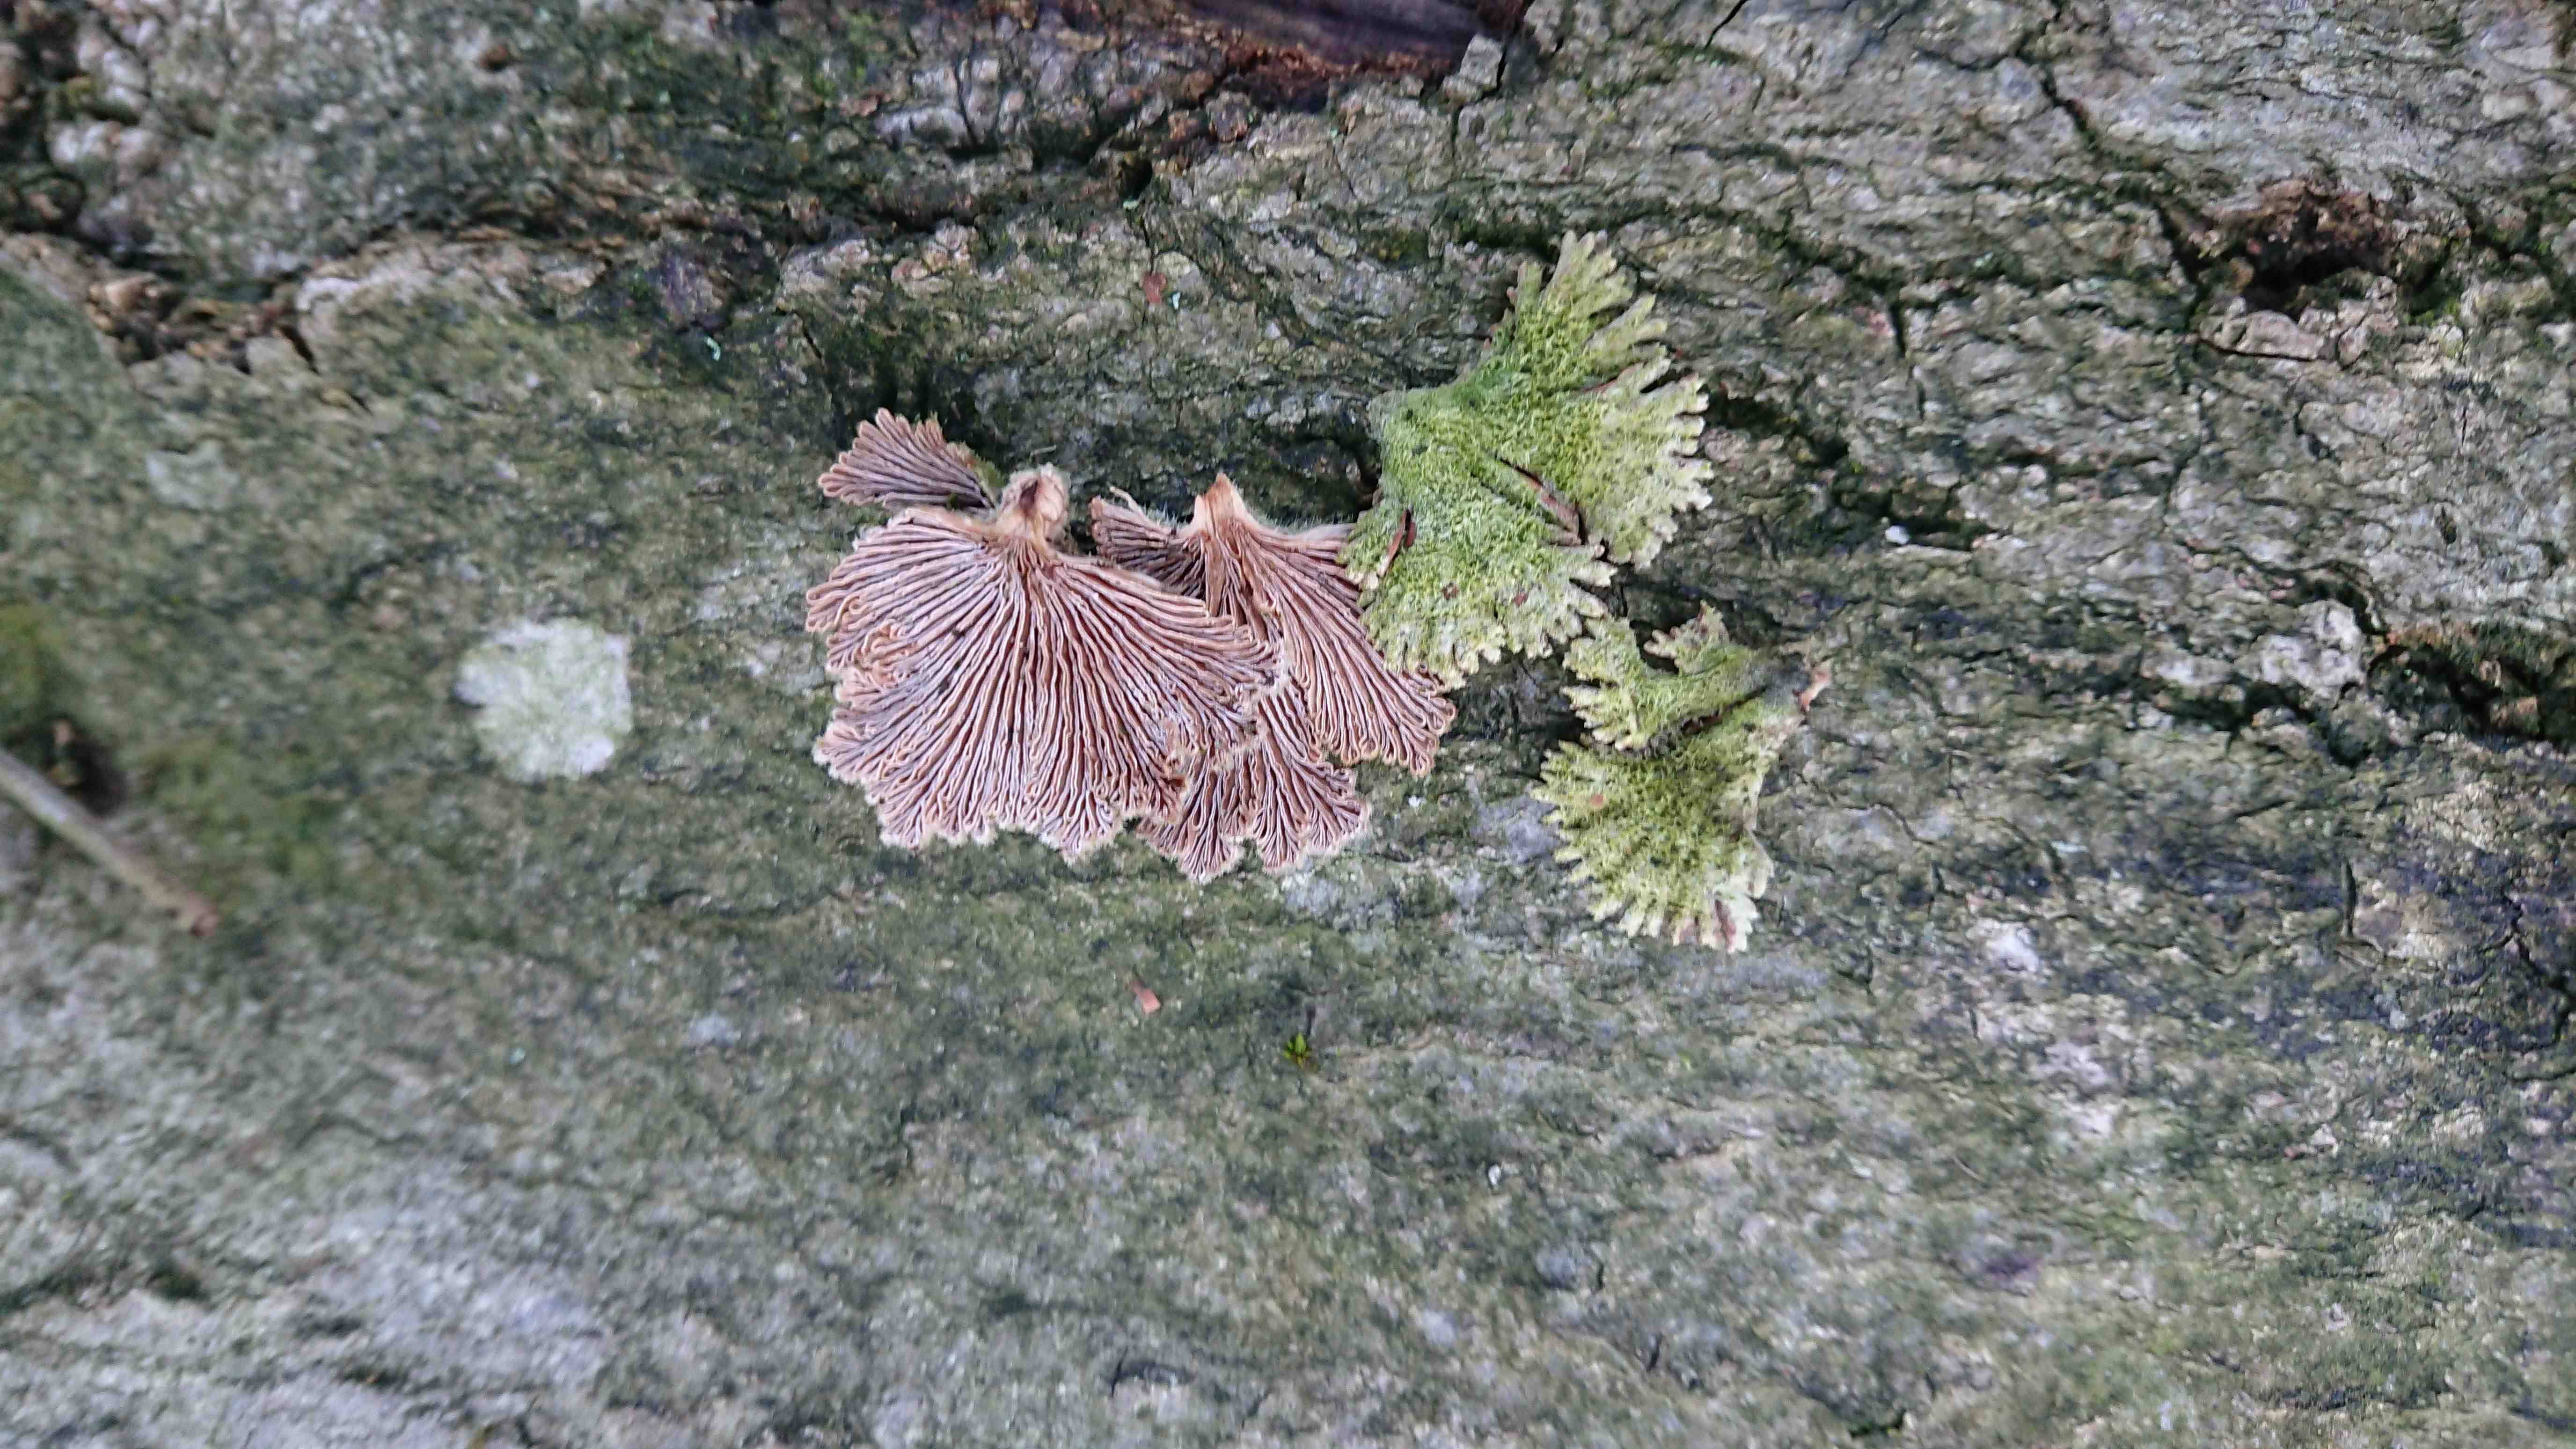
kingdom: Fungi
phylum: Basidiomycota
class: Agaricomycetes
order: Agaricales
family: Schizophyllaceae
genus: Schizophyllum
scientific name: Schizophyllum commune
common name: kløvblad
